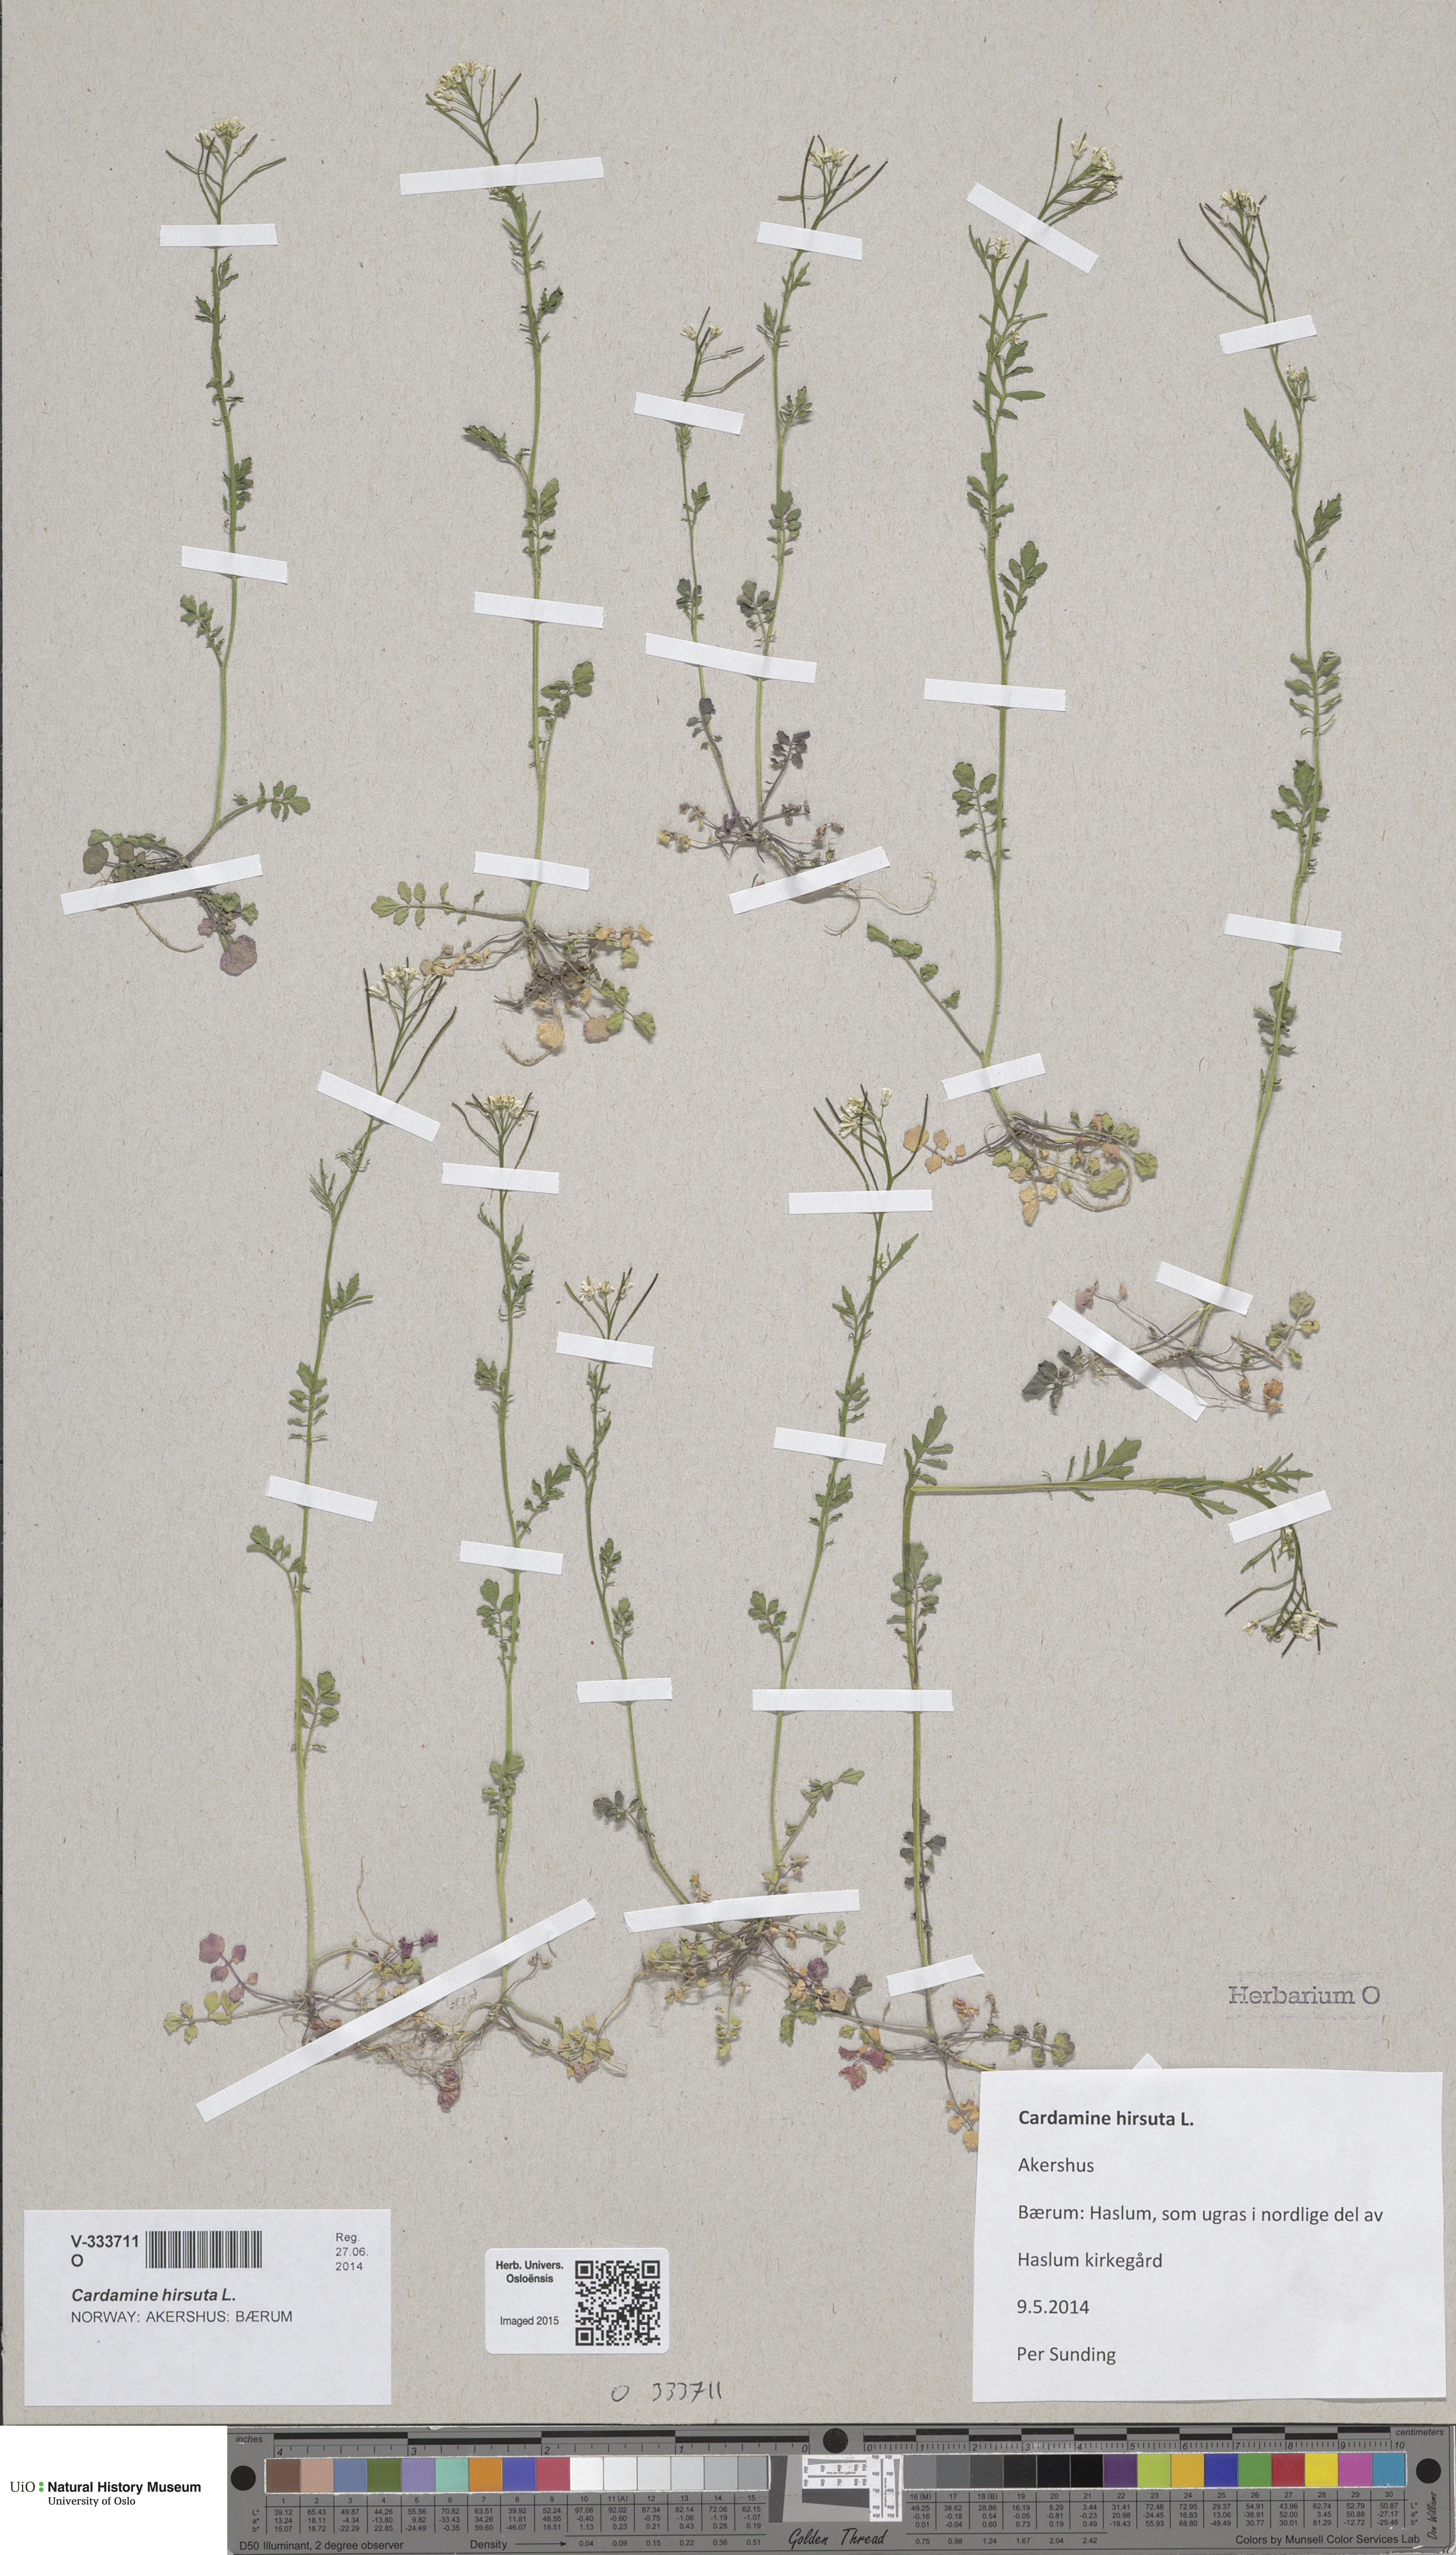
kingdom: Plantae
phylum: Tracheophyta
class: Magnoliopsida
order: Brassicales
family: Brassicaceae
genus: Cardamine
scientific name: Cardamine flexuosa
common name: Woodland bittercress
